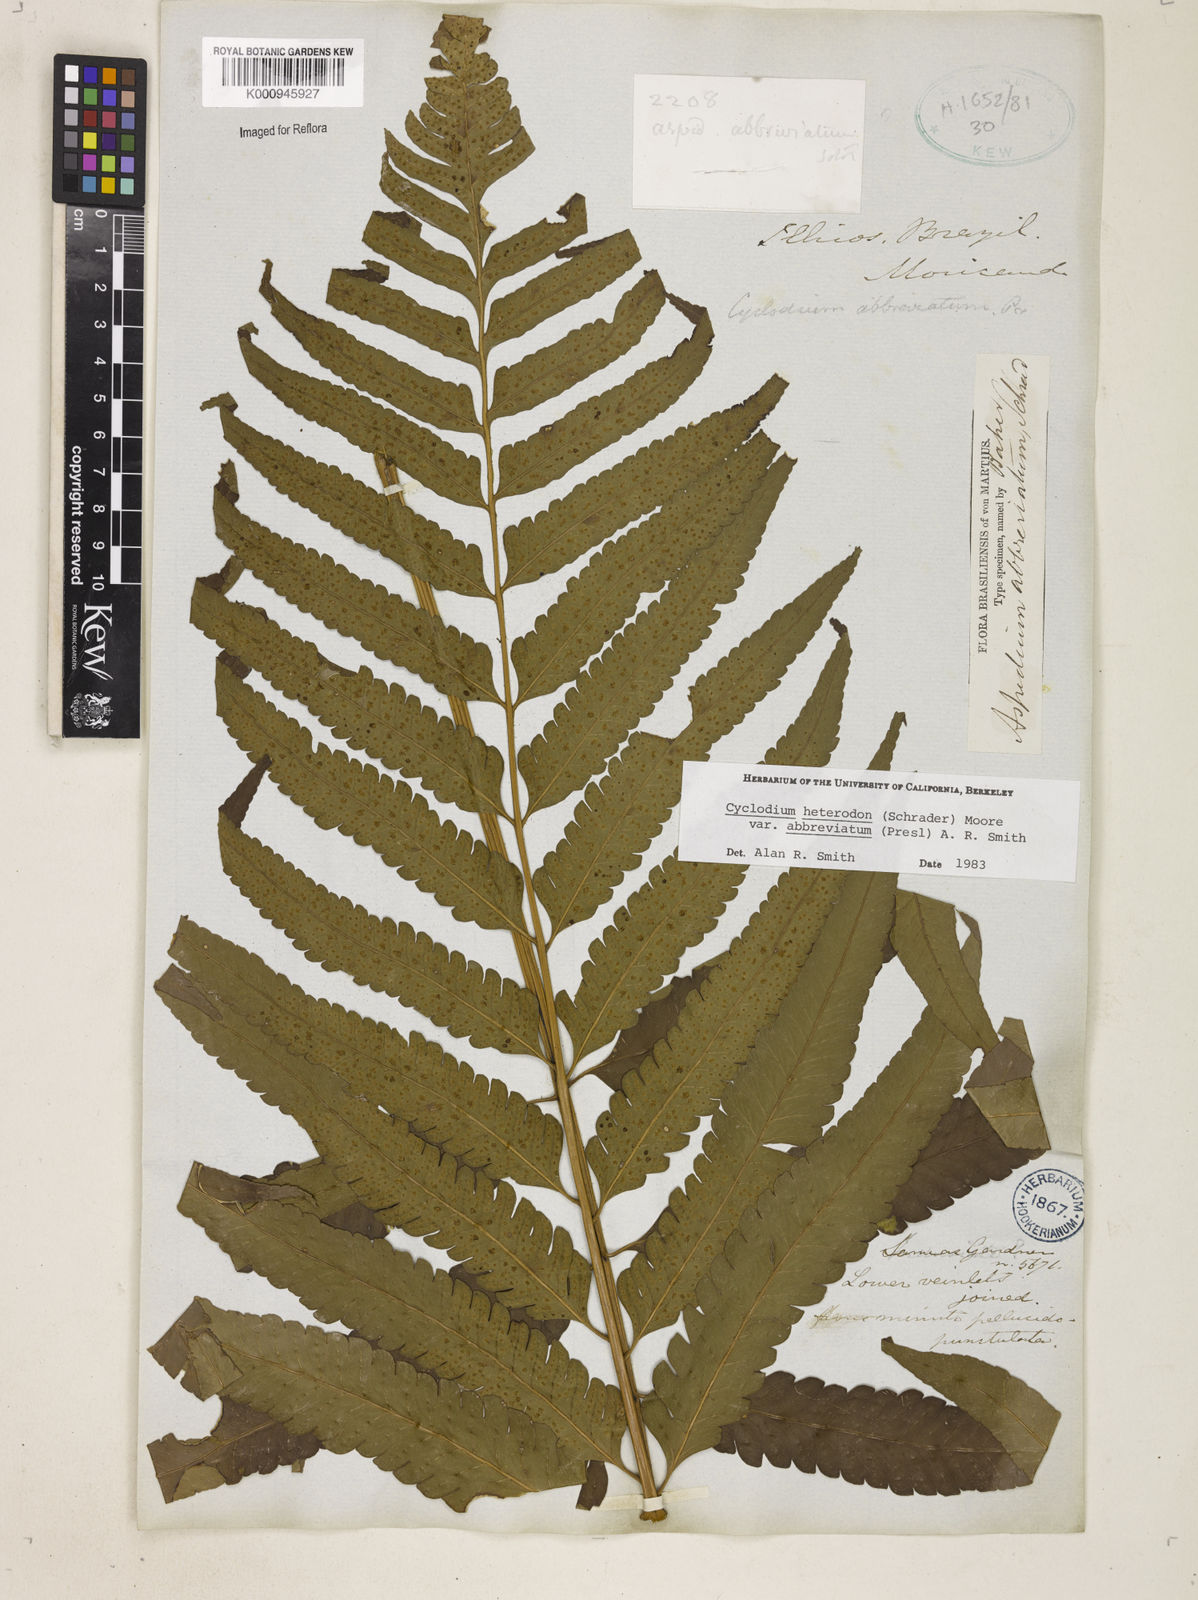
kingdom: Plantae
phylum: Tracheophyta
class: Polypodiopsida
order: Polypodiales
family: Dryopteridaceae
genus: Cyclodium
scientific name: Cyclodium heterodon
